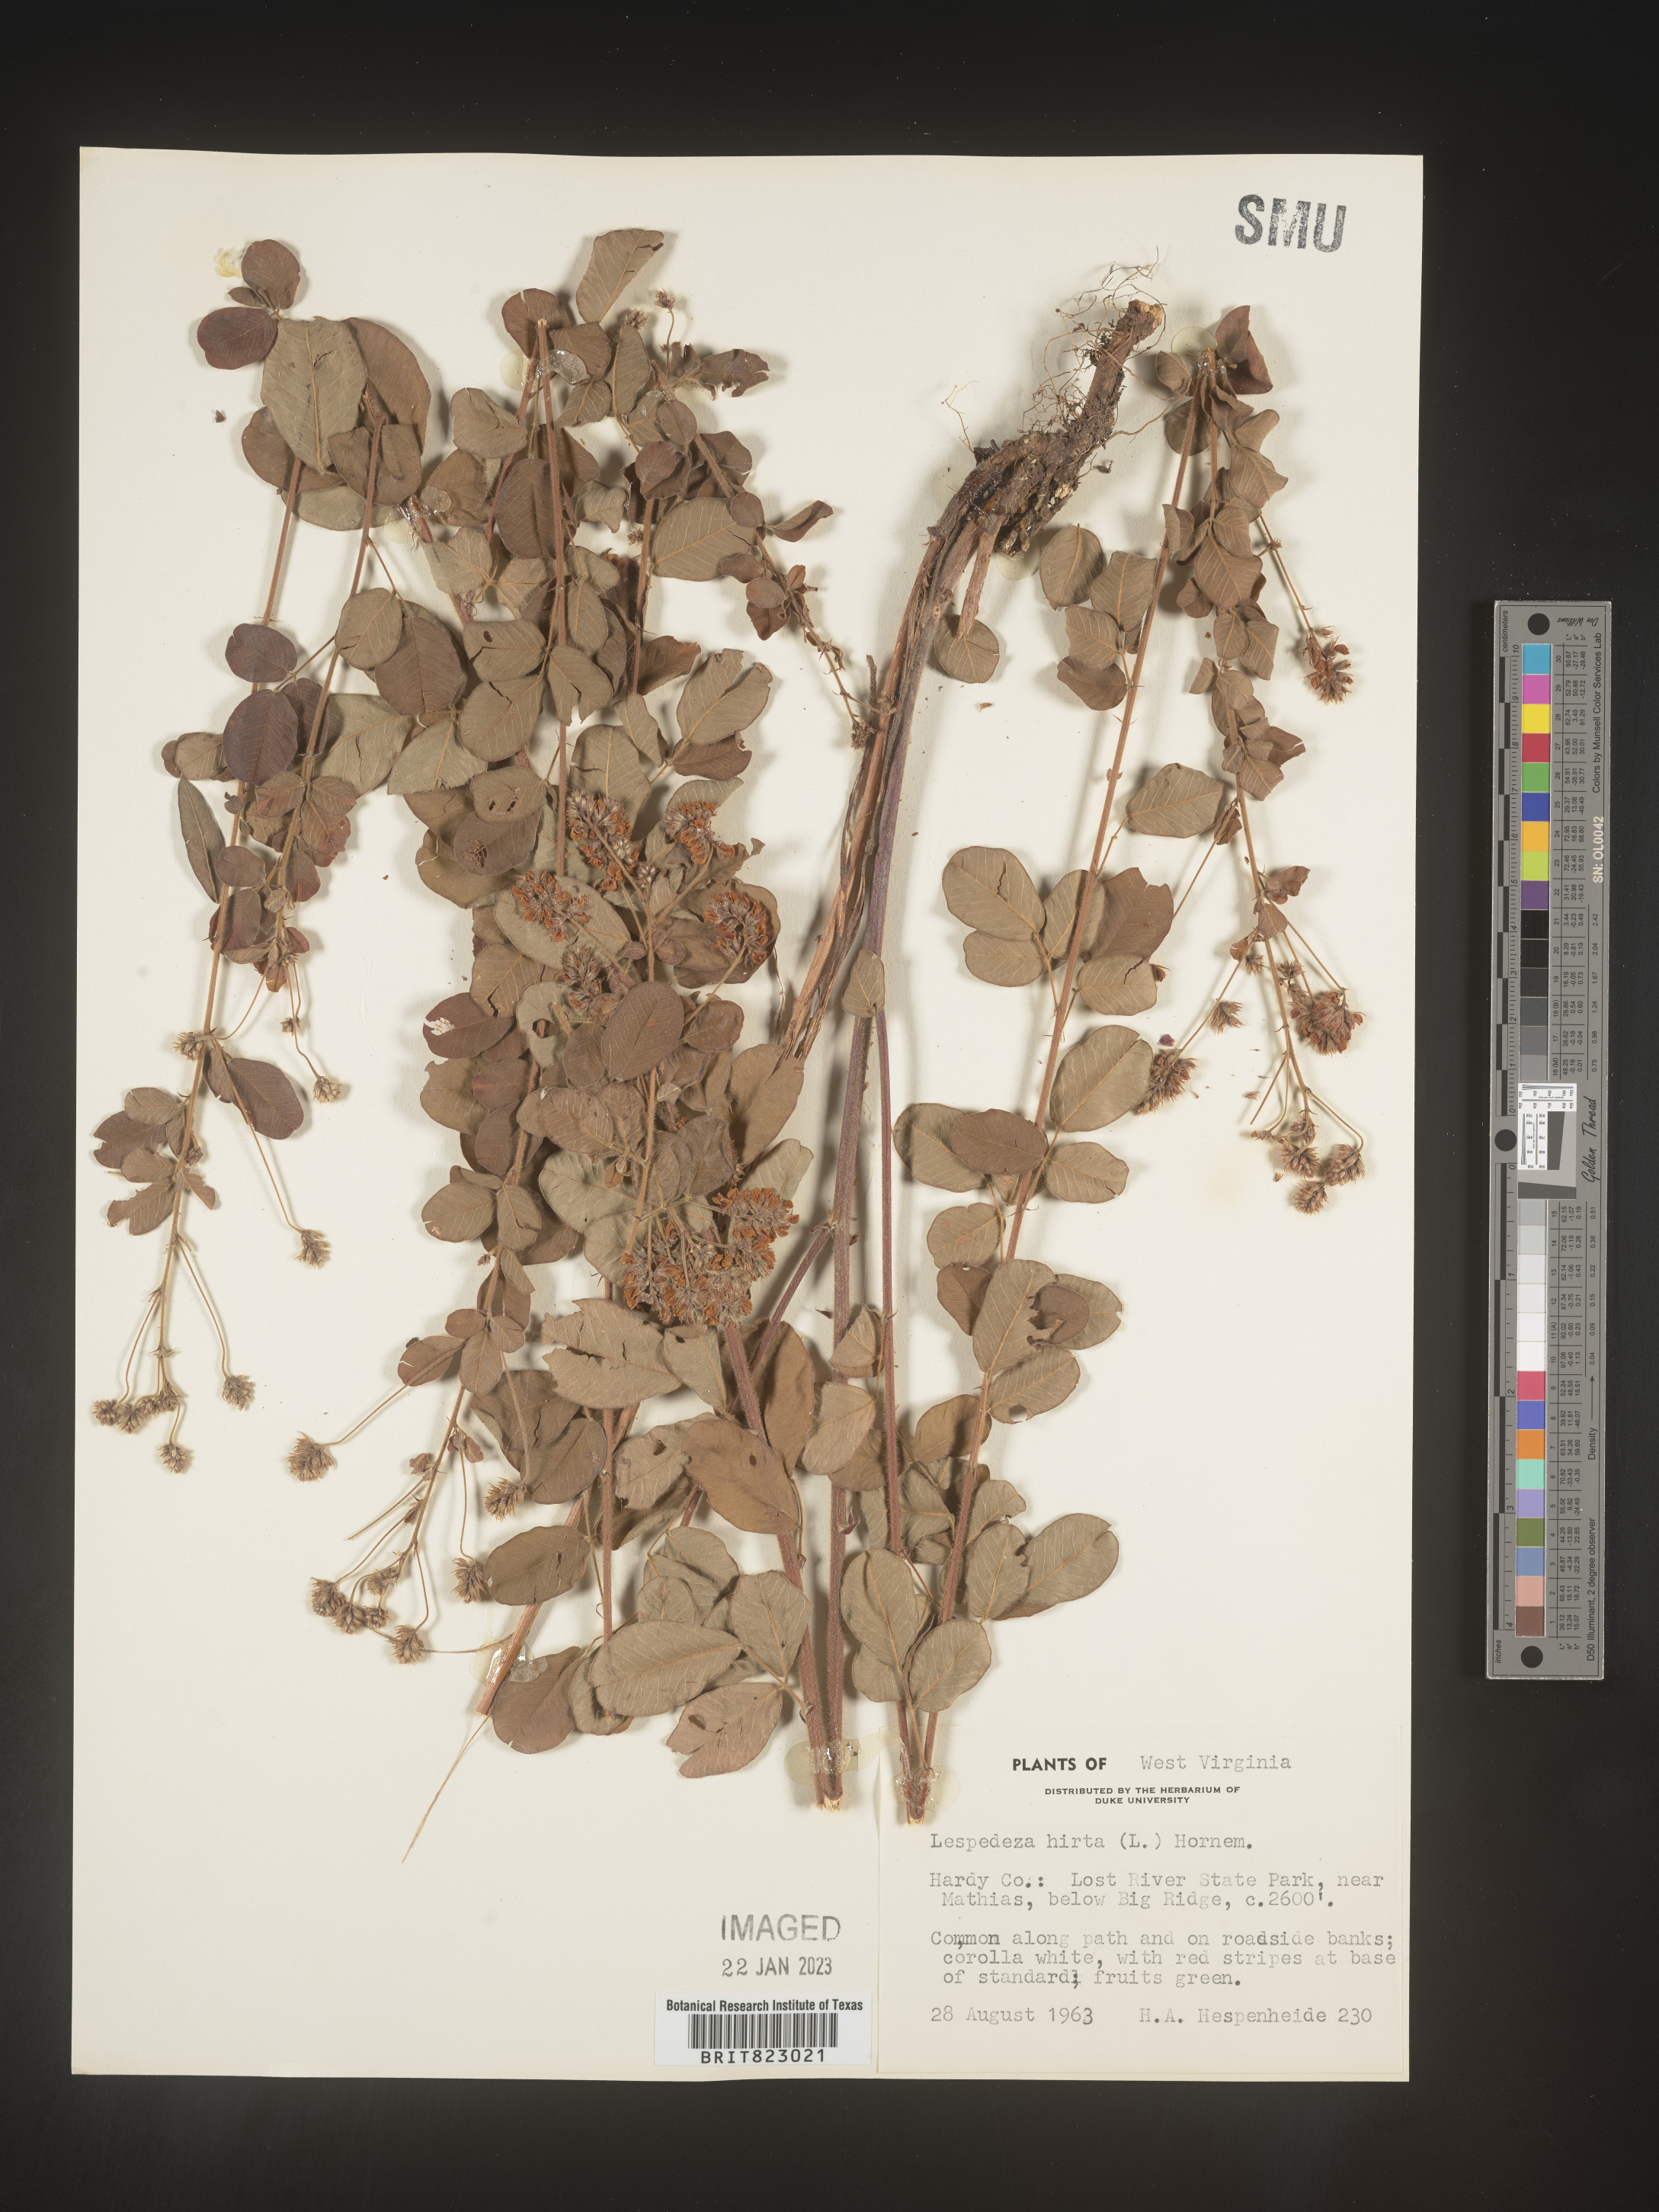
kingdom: Plantae
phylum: Tracheophyta
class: Magnoliopsida
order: Fabales
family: Fabaceae
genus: Lespedeza
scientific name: Lespedeza hirta
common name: Hairy lespedeza
